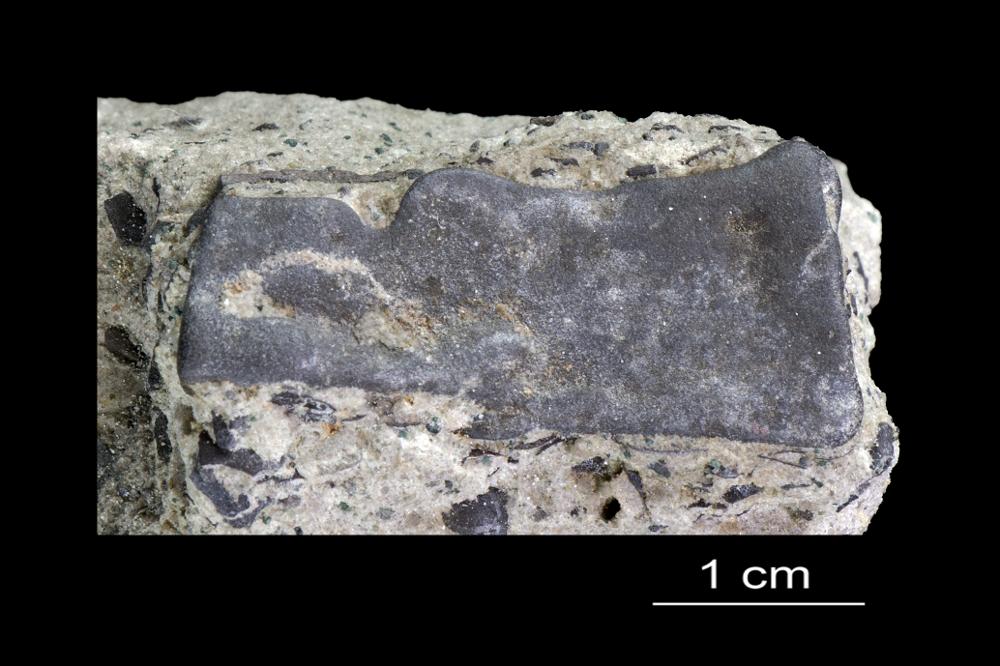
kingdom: Animalia
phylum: Arthropoda
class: Trilobita
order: Redlichiida
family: Holmiidae
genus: Schmidtiellus
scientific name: Schmidtiellus Olenellus mickwitzi
